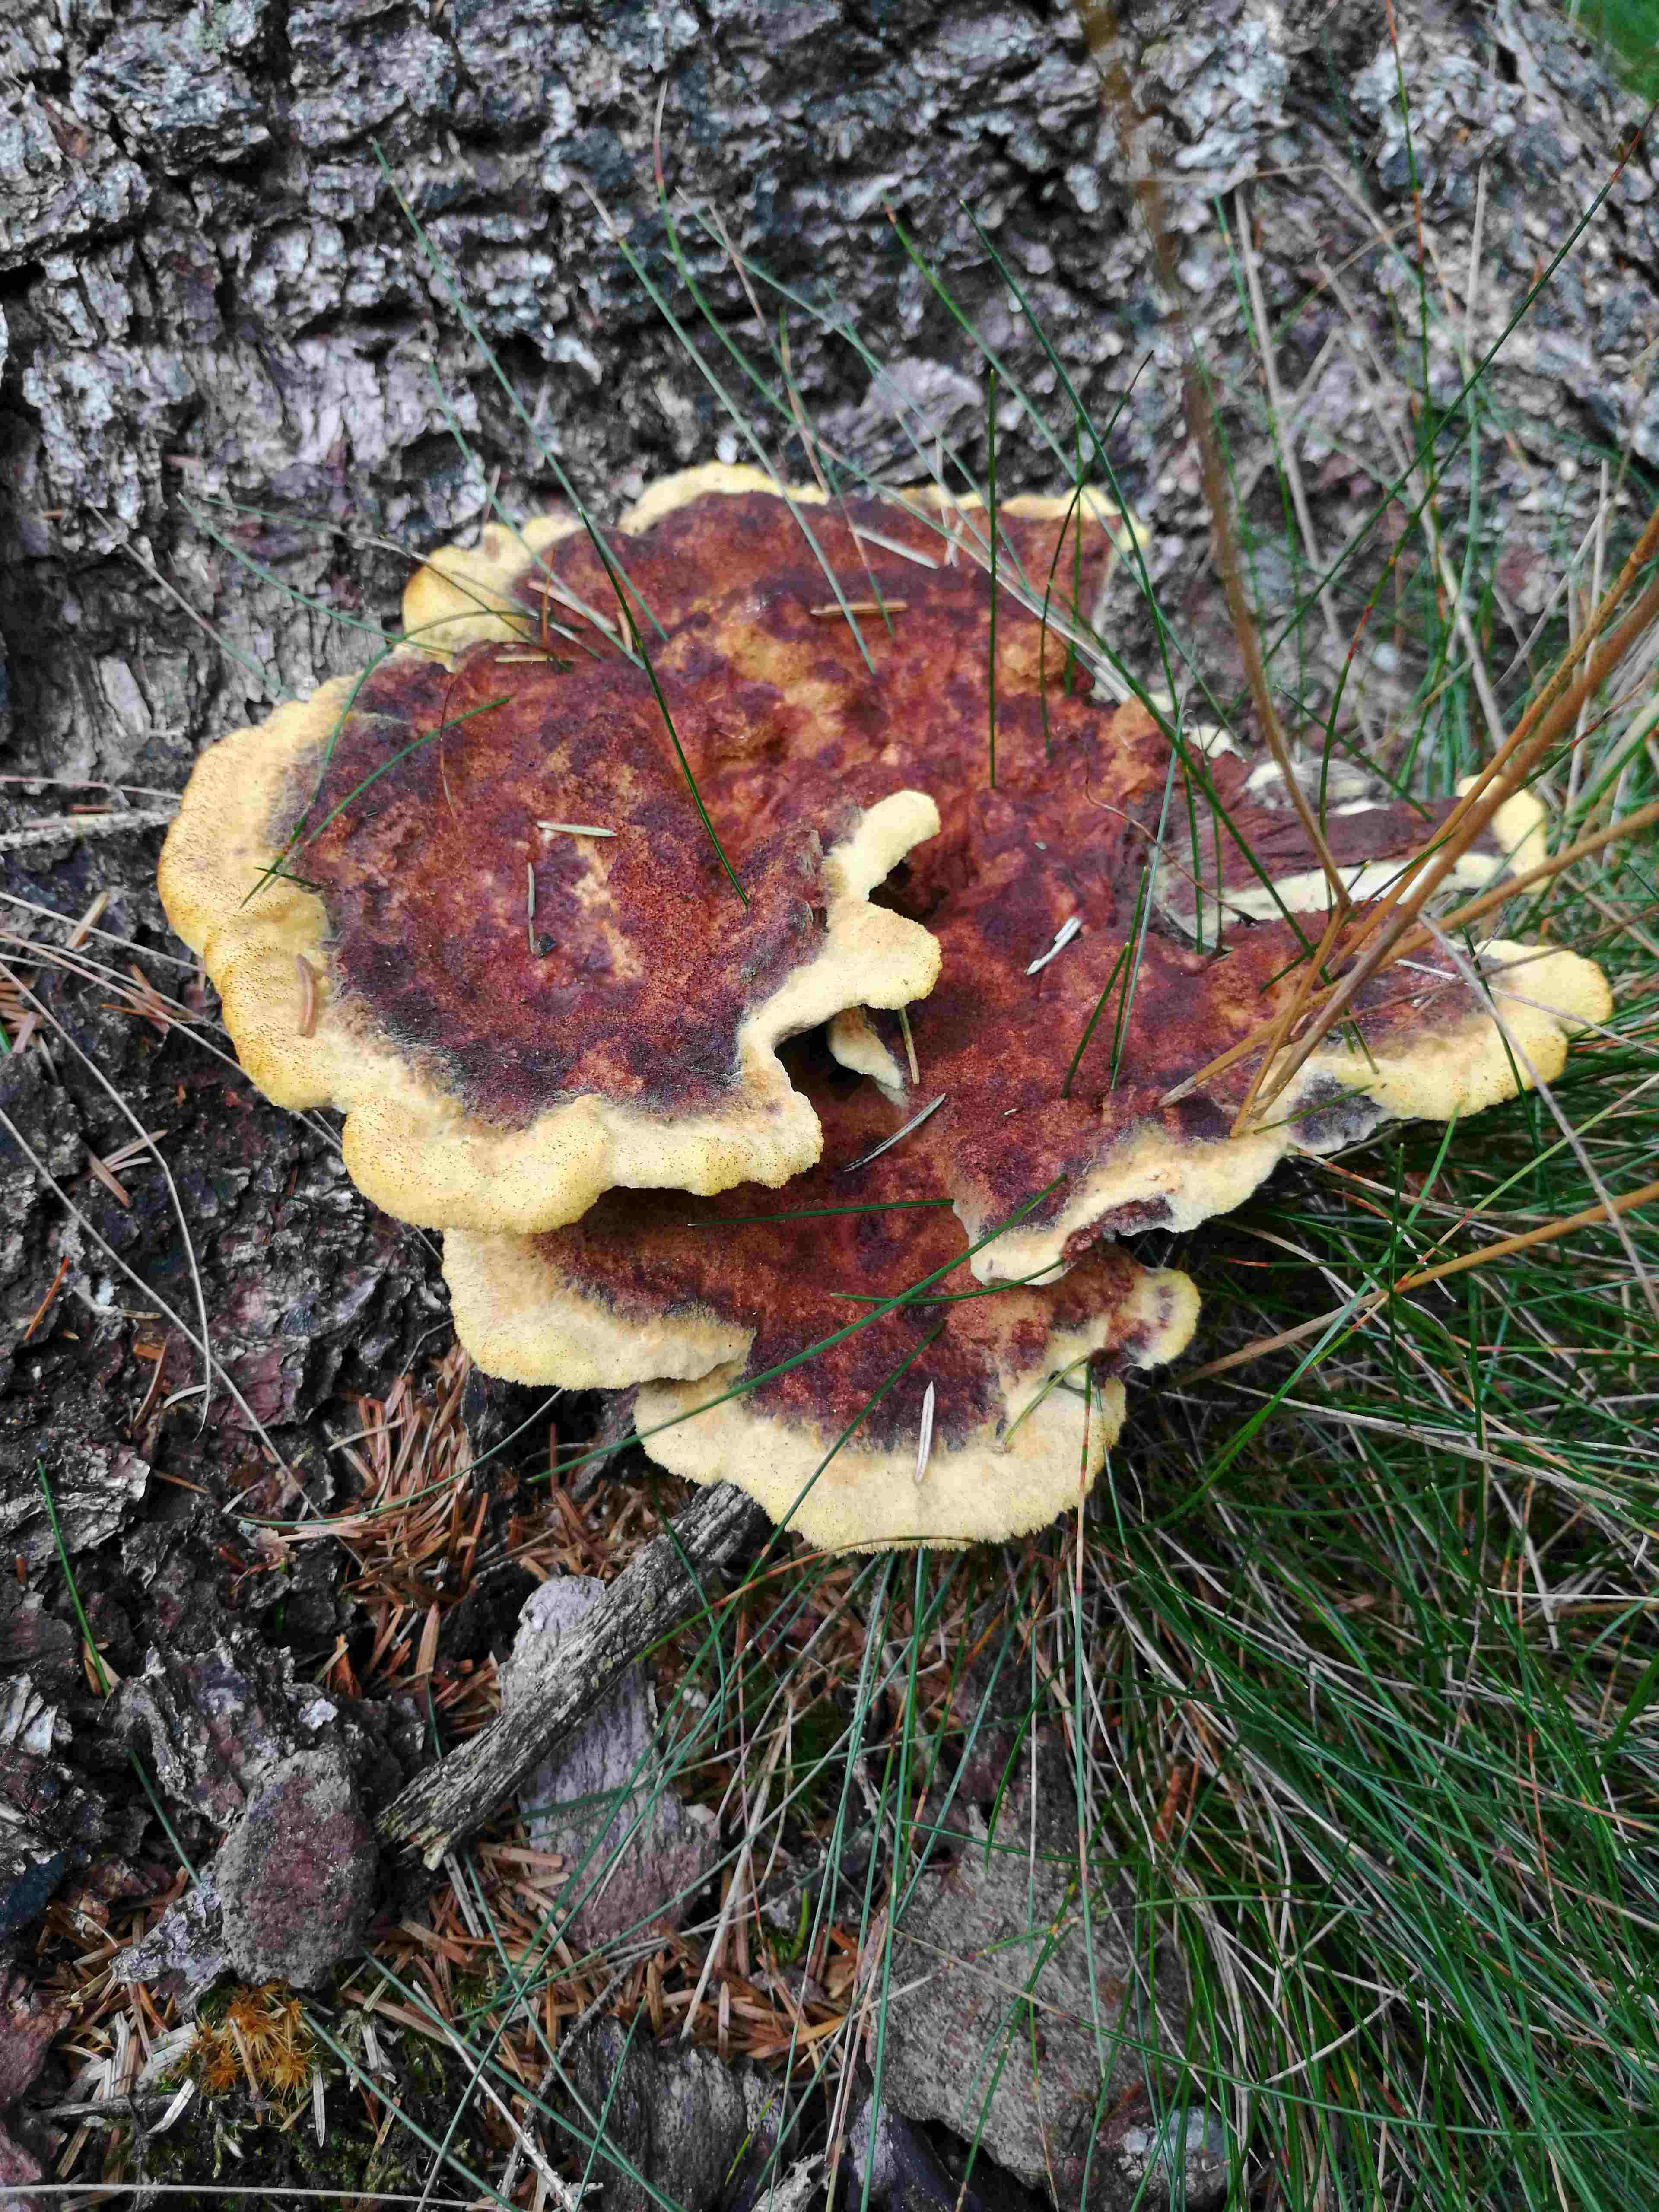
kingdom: Fungi
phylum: Basidiomycota
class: Agaricomycetes
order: Polyporales
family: Laetiporaceae
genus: Phaeolus
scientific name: Phaeolus schweinitzii
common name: brunporesvamp
